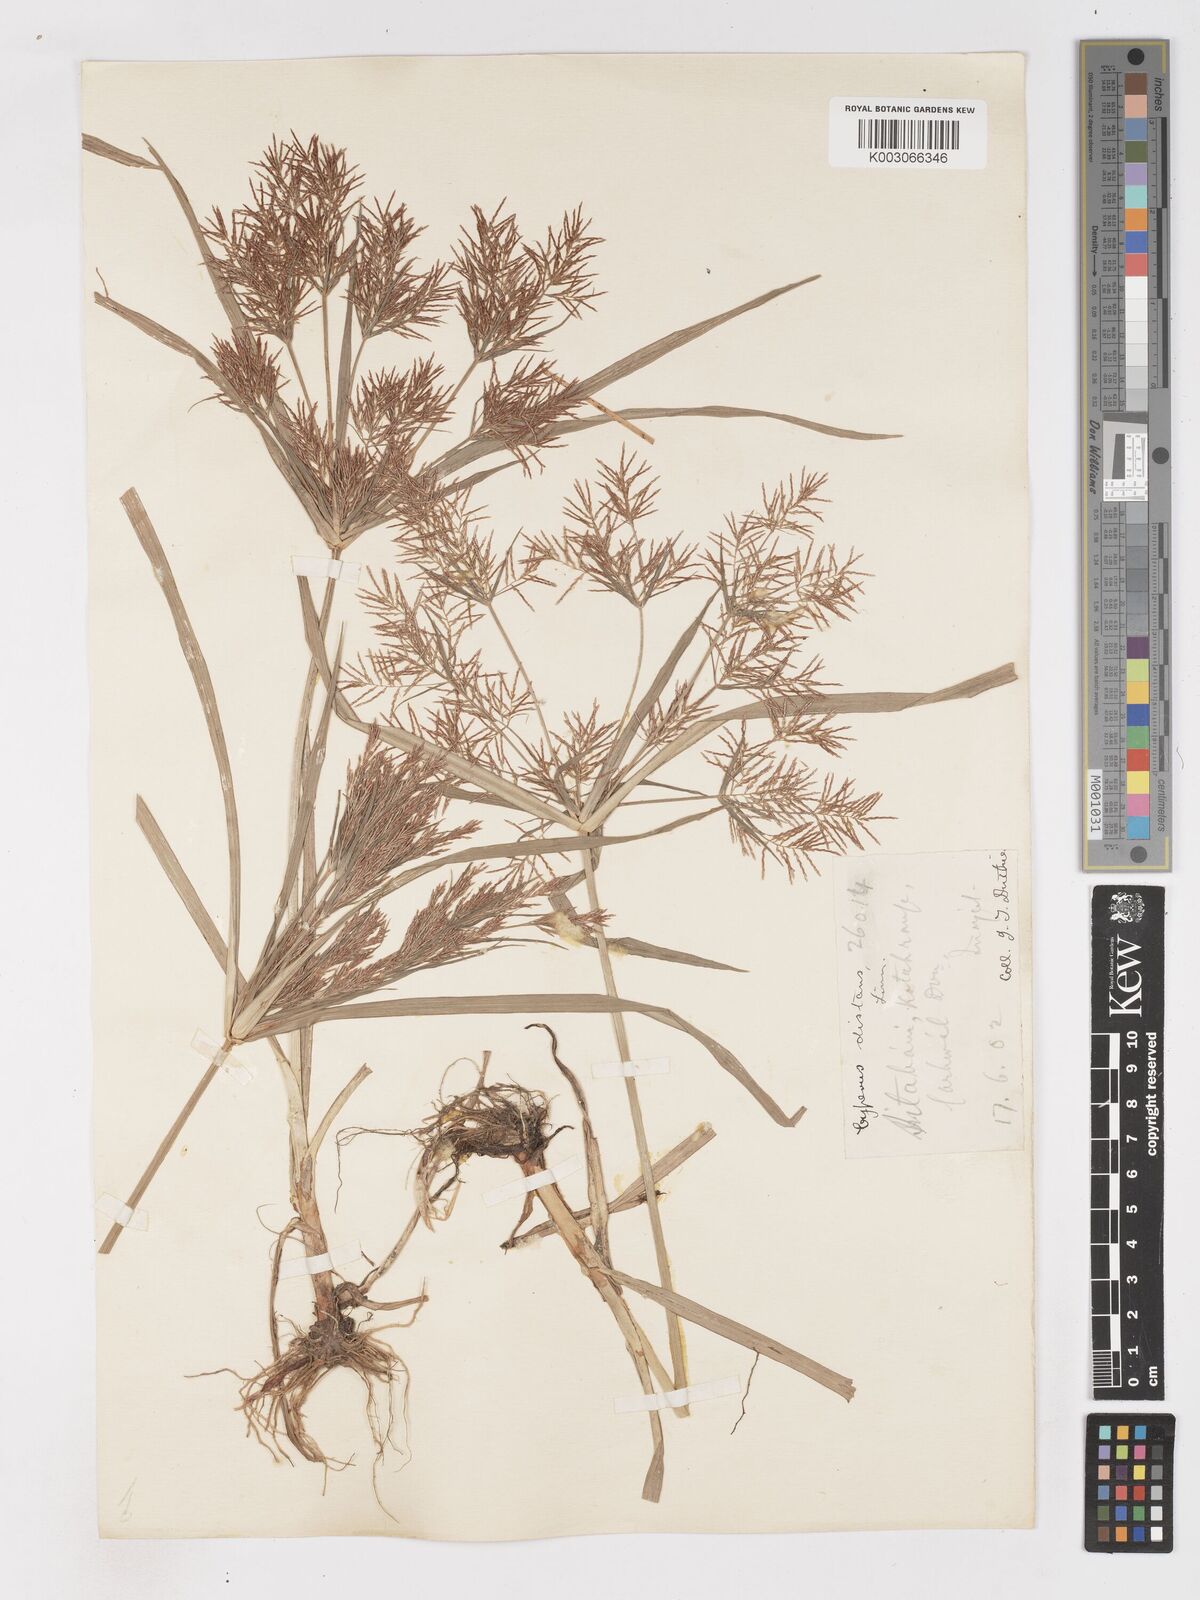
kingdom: Plantae
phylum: Tracheophyta
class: Liliopsida
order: Poales
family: Cyperaceae
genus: Cyperus
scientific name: Cyperus distans
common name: Slender cyperus
